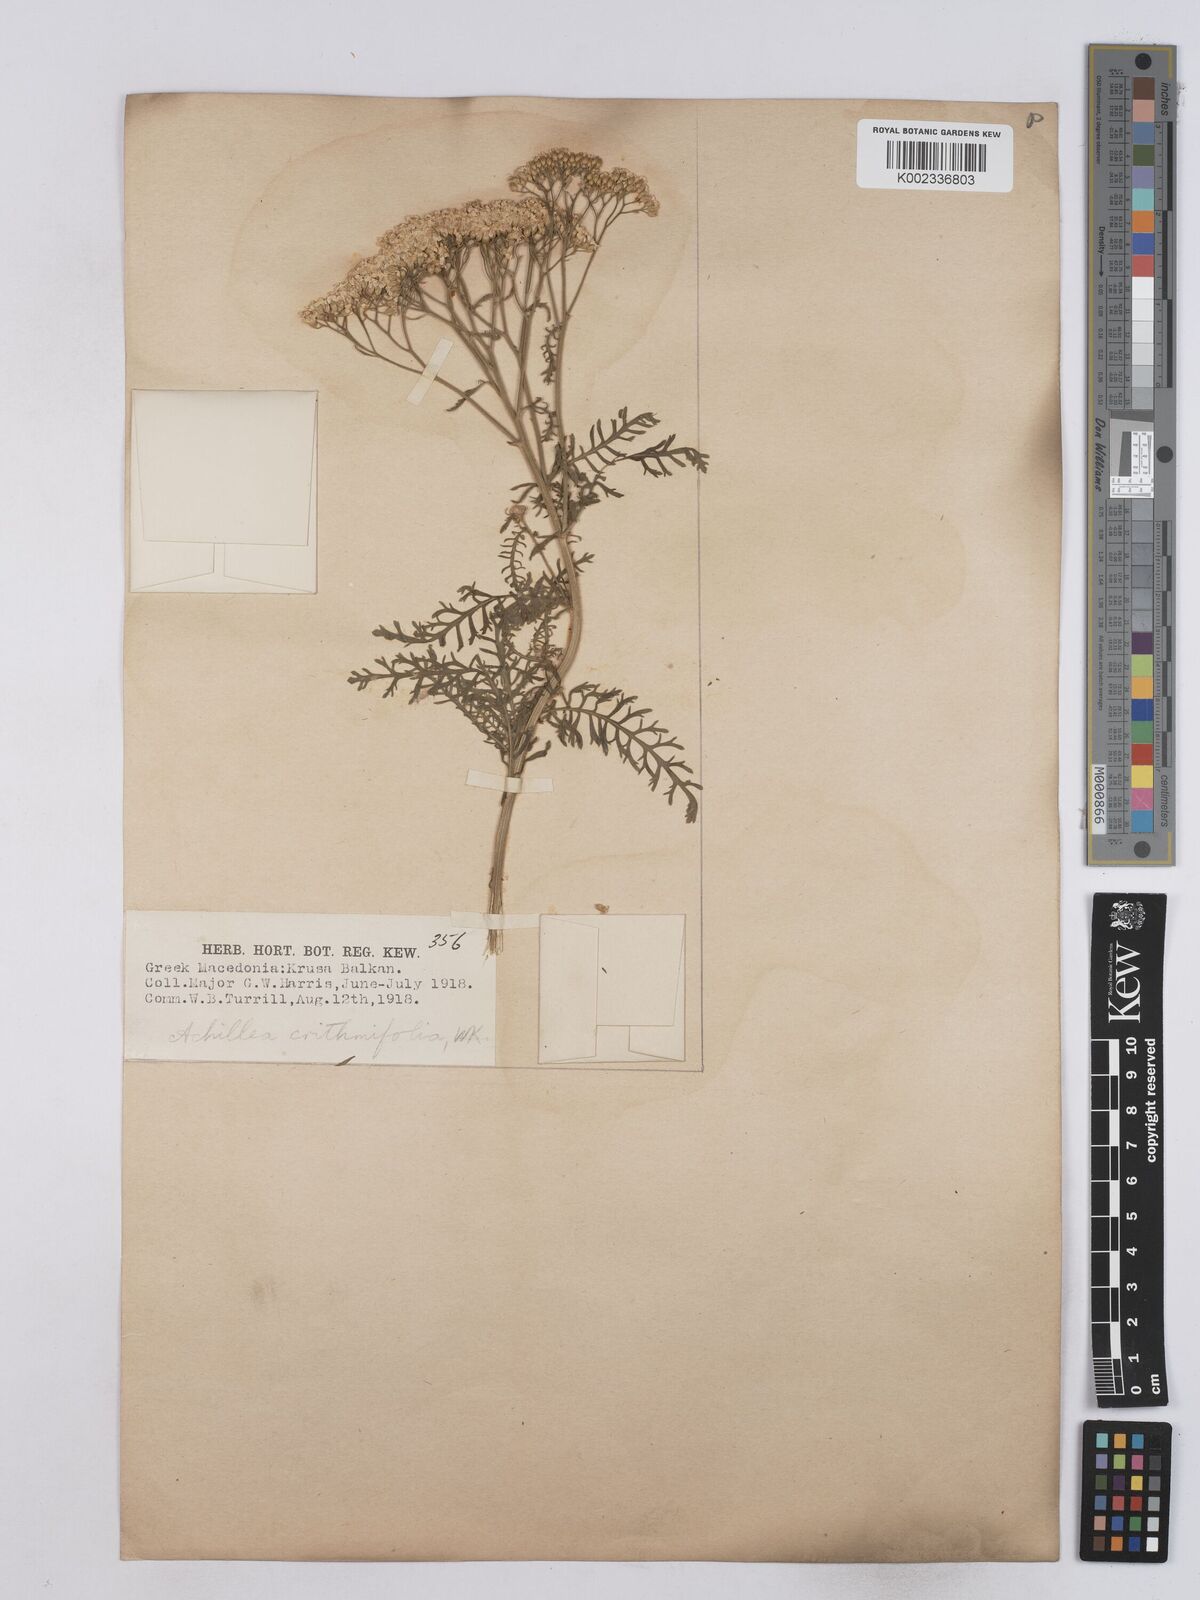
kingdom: Plantae
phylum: Tracheophyta
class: Magnoliopsida
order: Asterales
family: Asteraceae
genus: Achillea
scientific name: Achillea crithmifolia
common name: Yarrow
